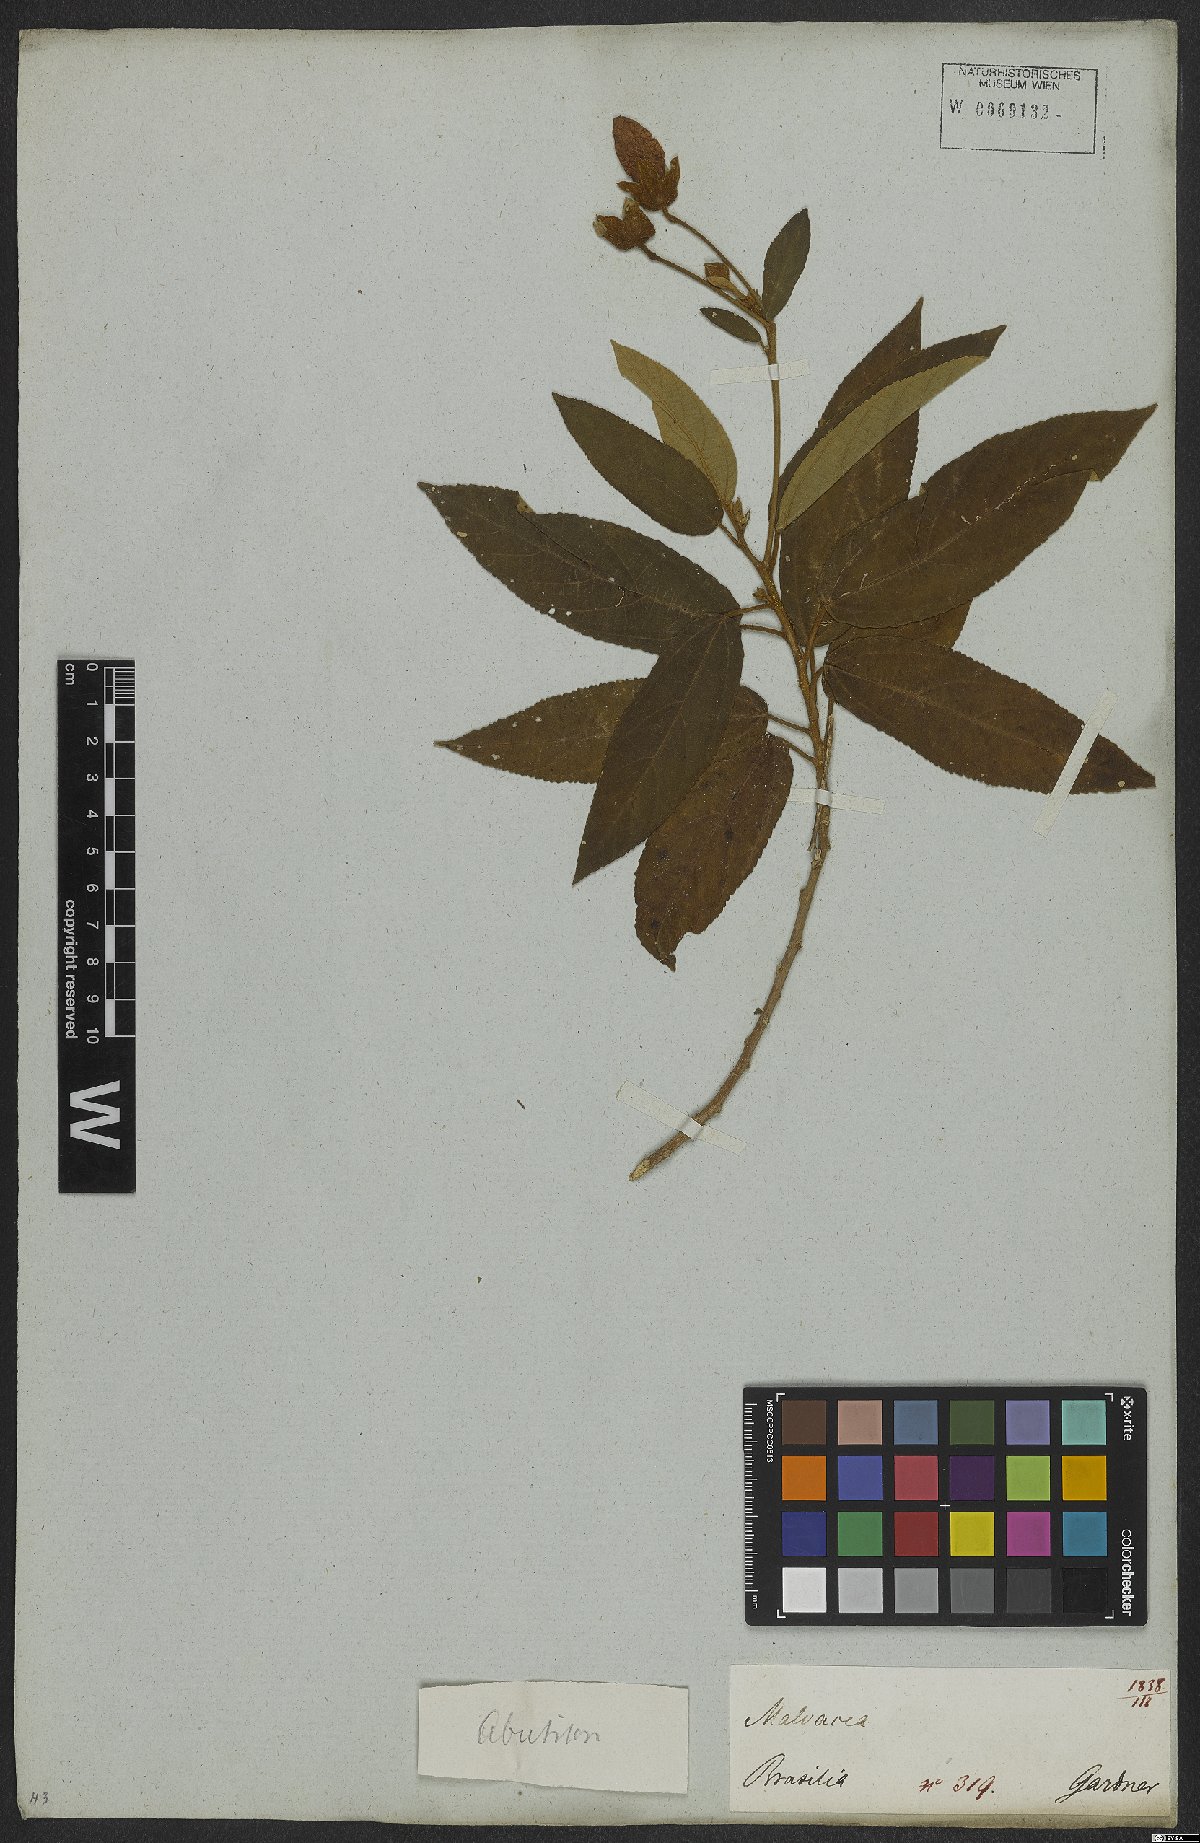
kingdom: Plantae
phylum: Tracheophyta
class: Magnoliopsida
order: Malvales
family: Malvaceae
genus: Callianthe
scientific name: Callianthe rufinerva
